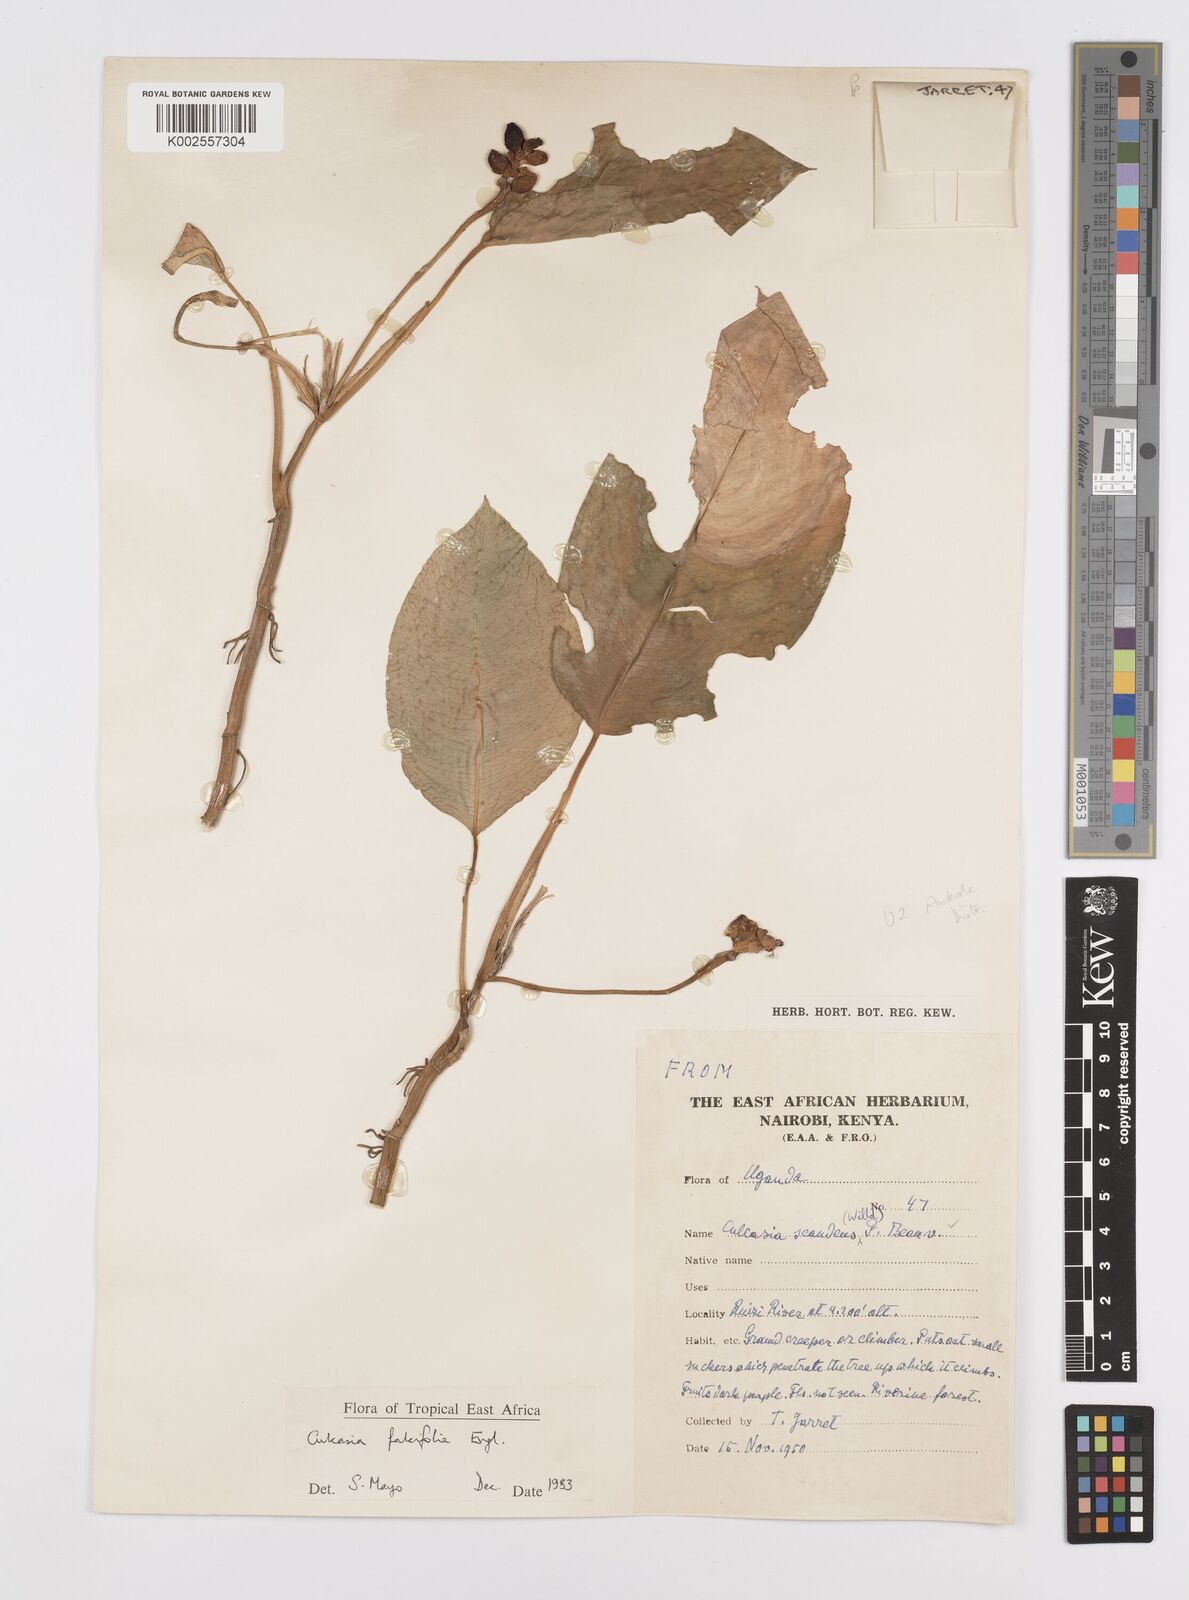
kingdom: Plantae
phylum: Tracheophyta
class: Liliopsida
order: Alismatales
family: Araceae
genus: Culcasia
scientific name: Culcasia falcifolia
